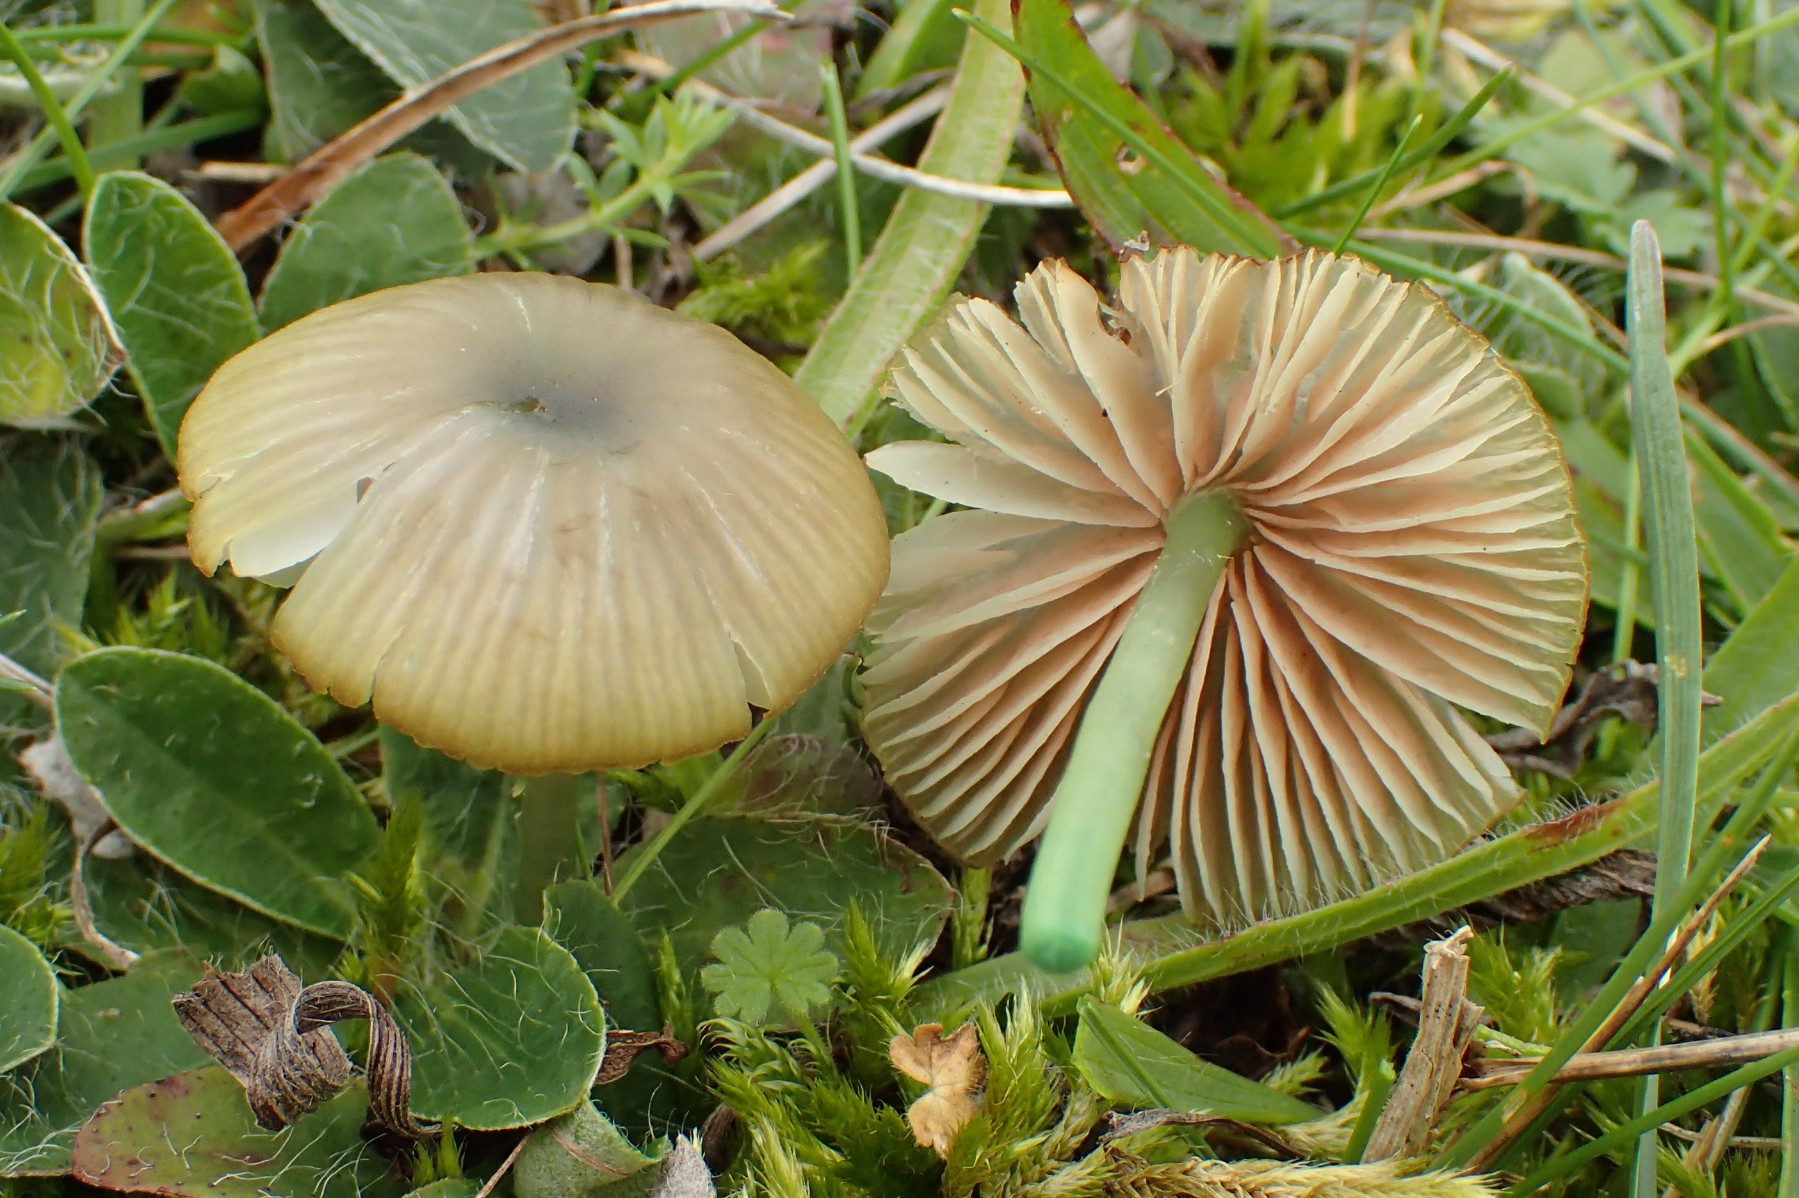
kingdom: Fungi
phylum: Basidiomycota
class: Agaricomycetes
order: Agaricales
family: Entolomataceae
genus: Entoloma
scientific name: Entoloma incanum
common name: grøngul rødblad
